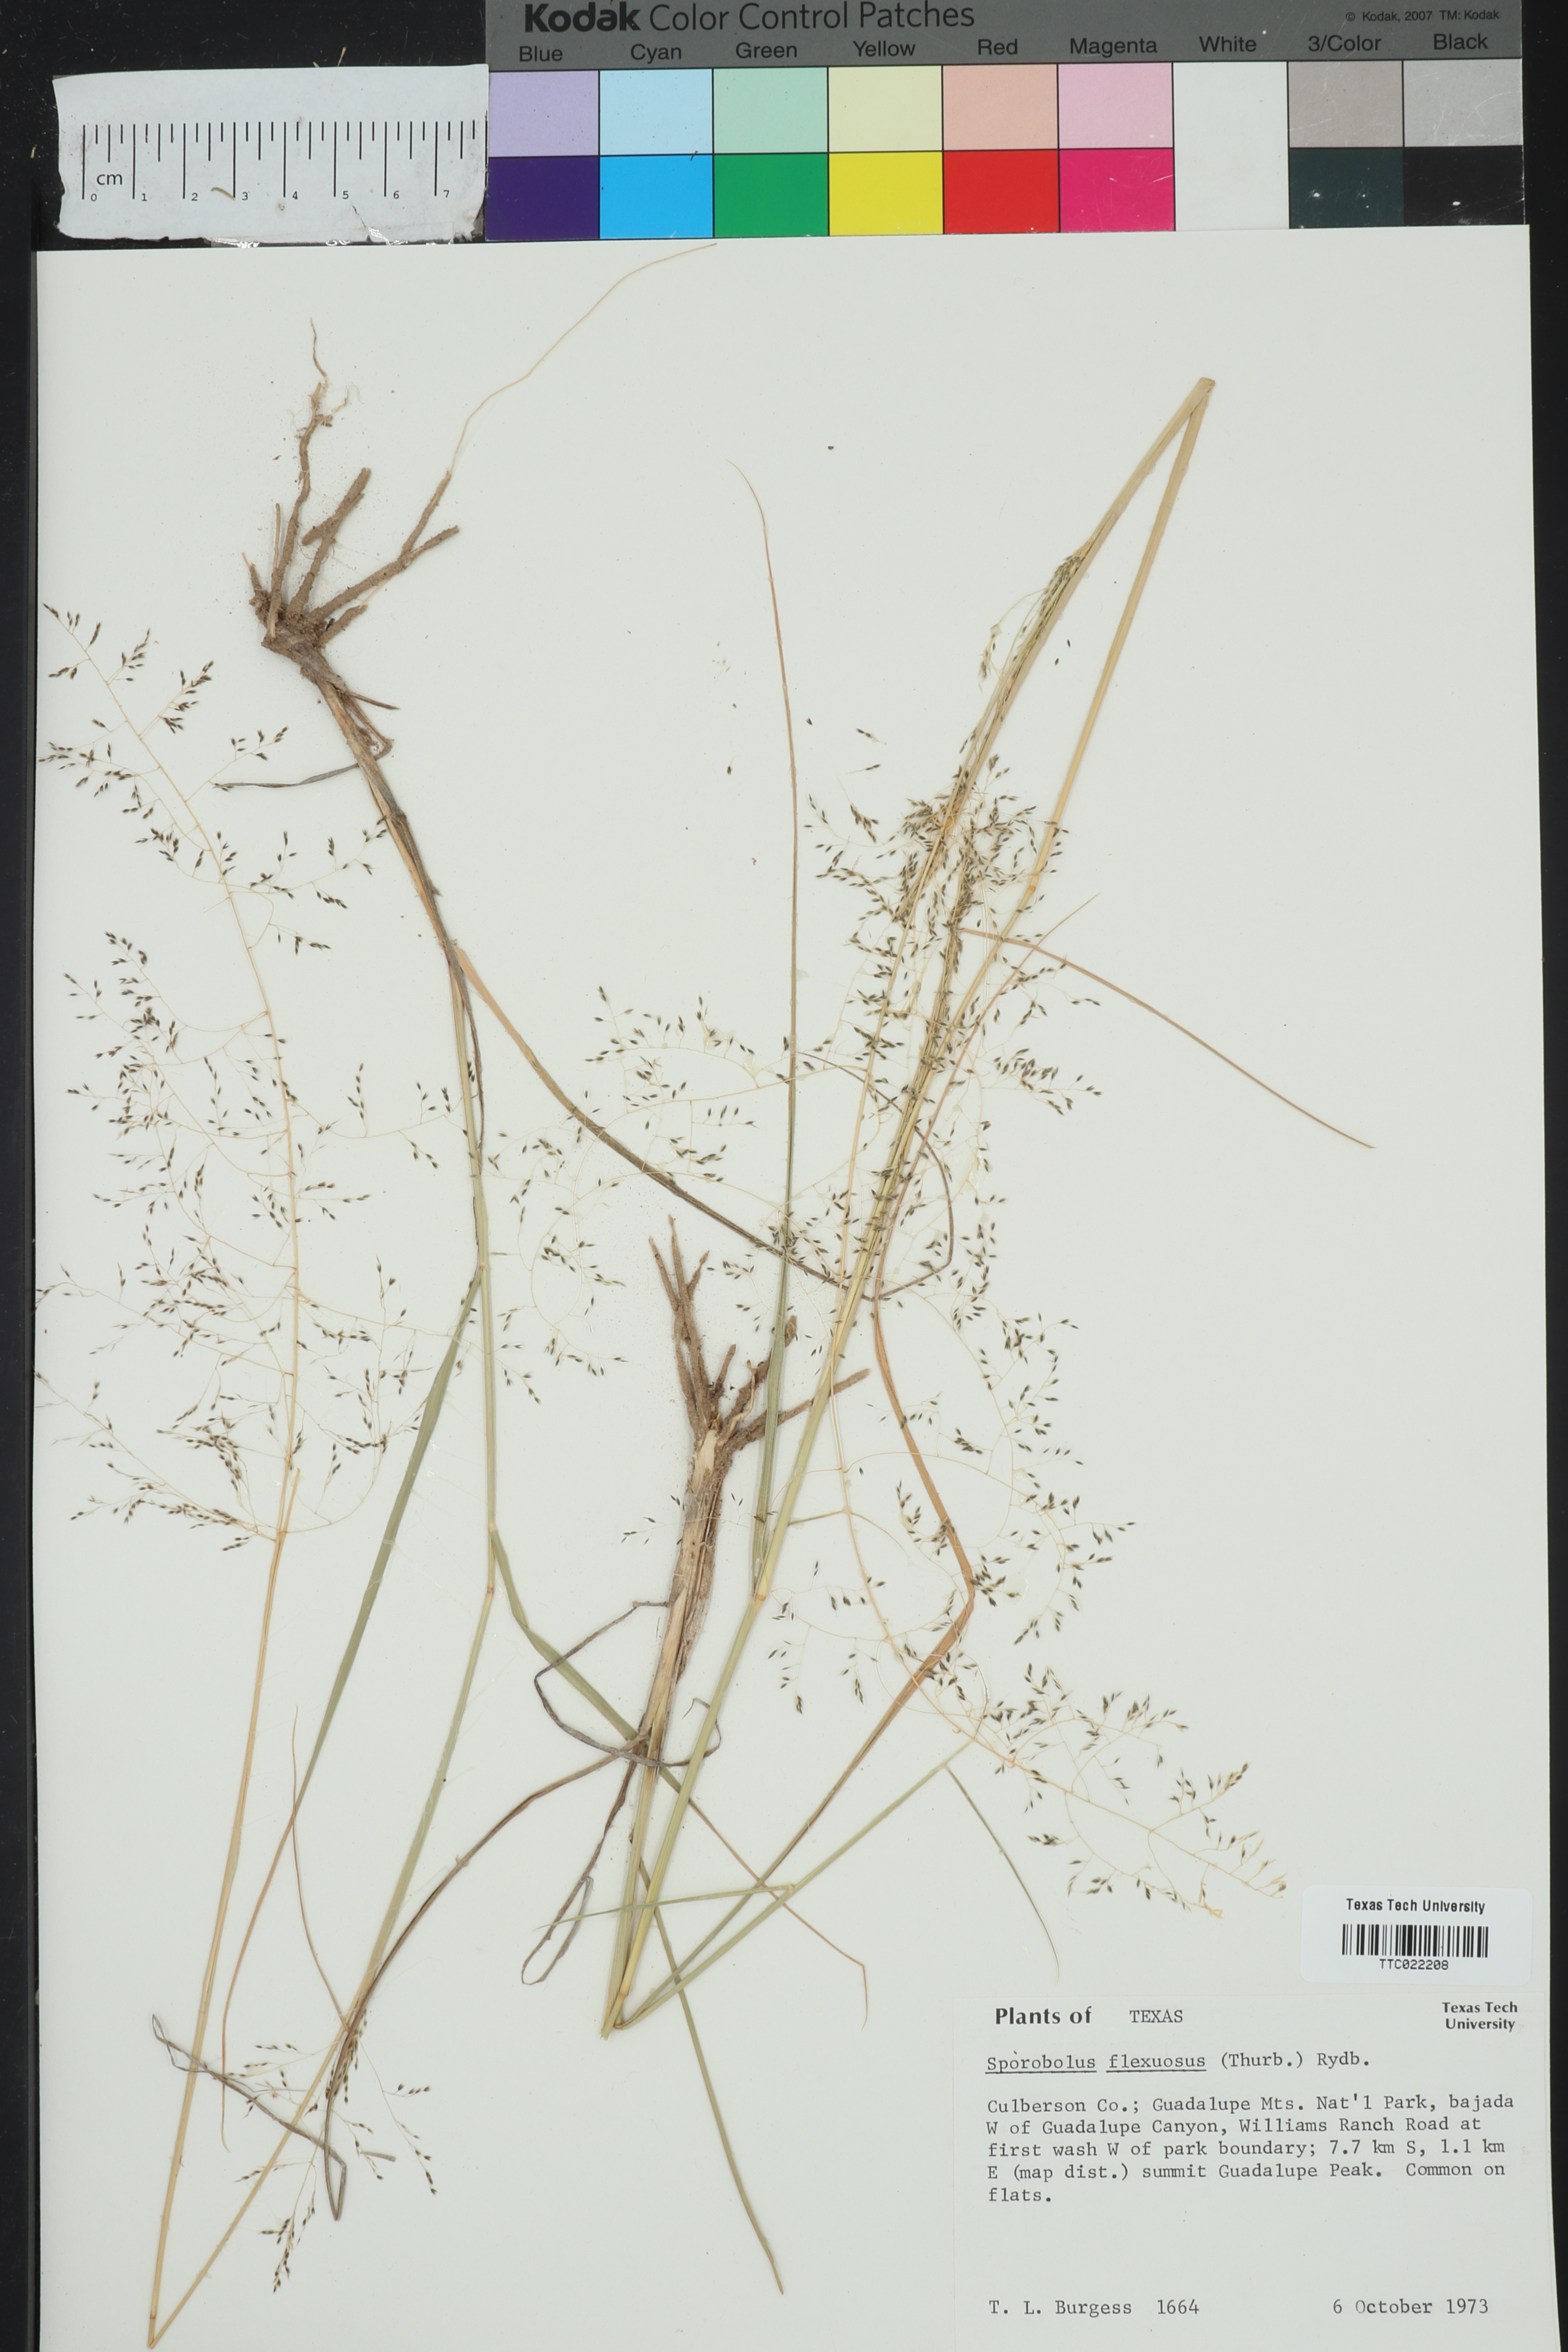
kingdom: Plantae
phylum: Tracheophyta
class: Liliopsida
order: Poales
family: Poaceae
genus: Sporobolus
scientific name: Sporobolus flexuosus
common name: Mesa dropseed
